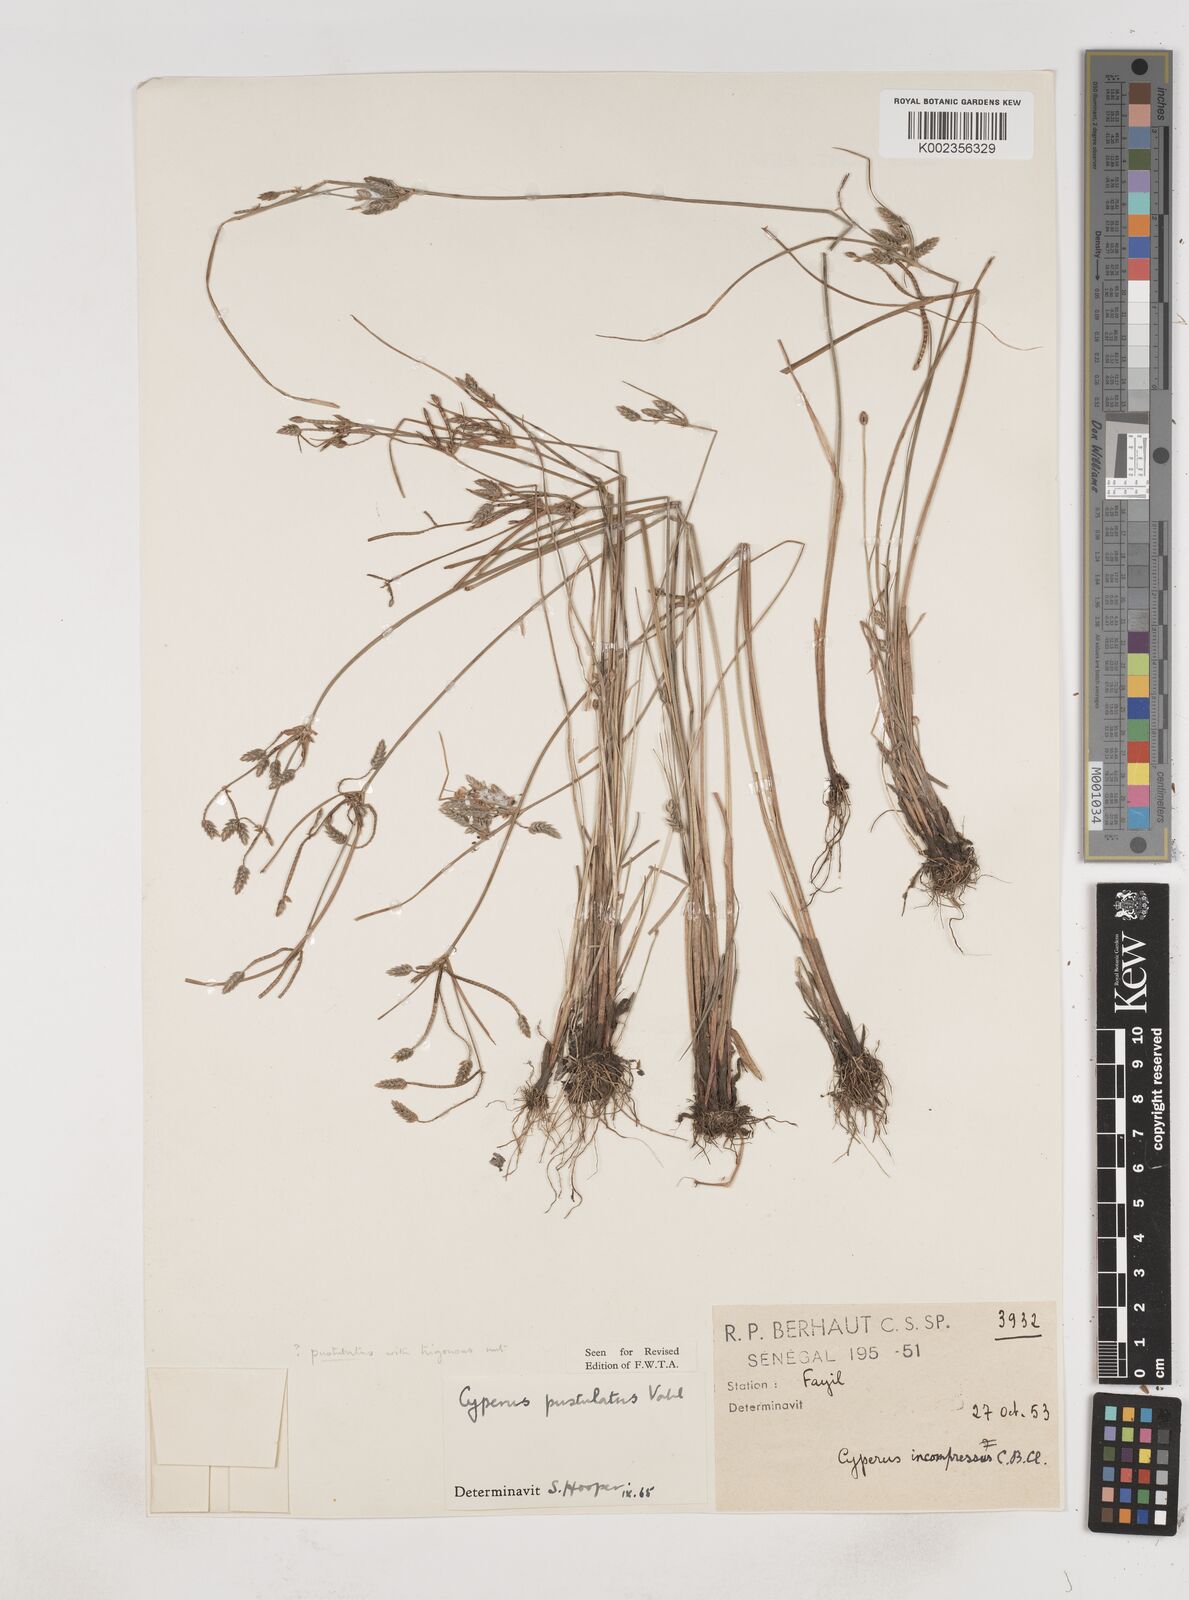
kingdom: Plantae
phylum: Tracheophyta
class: Liliopsida
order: Poales
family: Cyperaceae
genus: Cyperus
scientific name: Cyperus pustulatus
